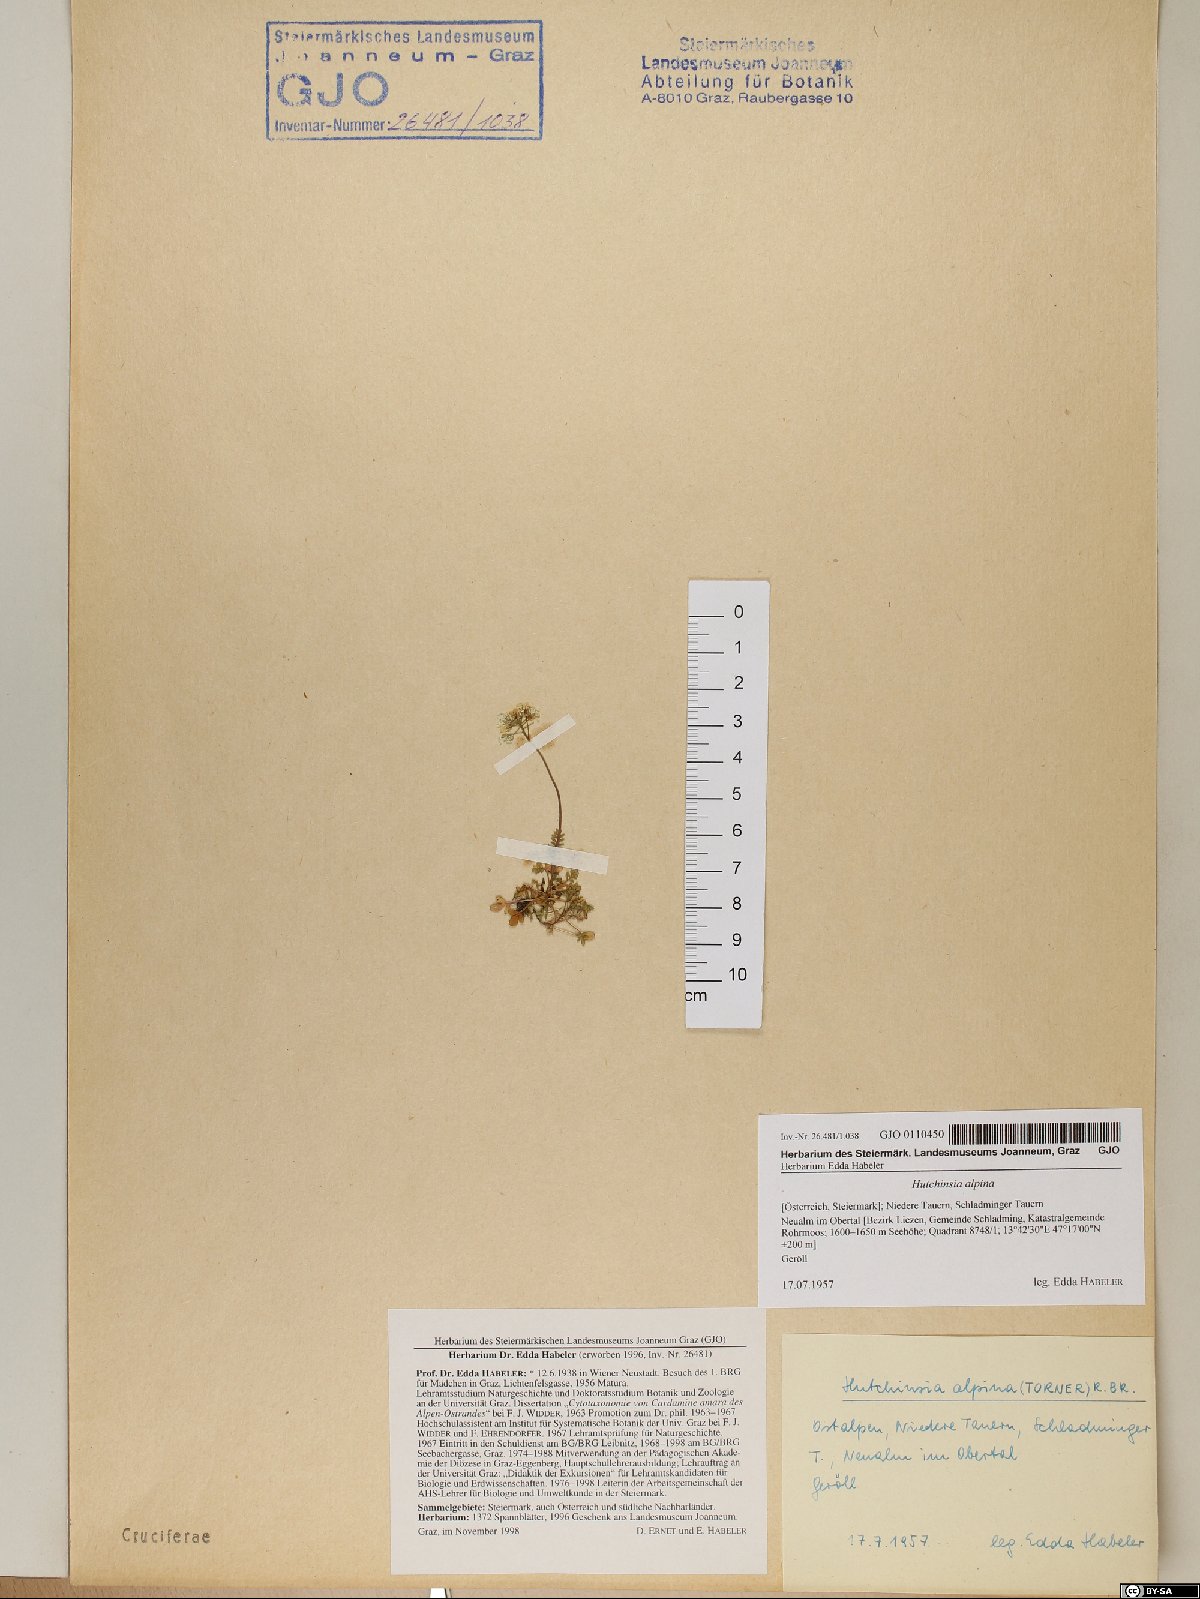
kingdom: Plantae
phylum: Tracheophyta
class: Magnoliopsida
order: Brassicales
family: Brassicaceae
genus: Hornungia
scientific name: Hornungia alpina
